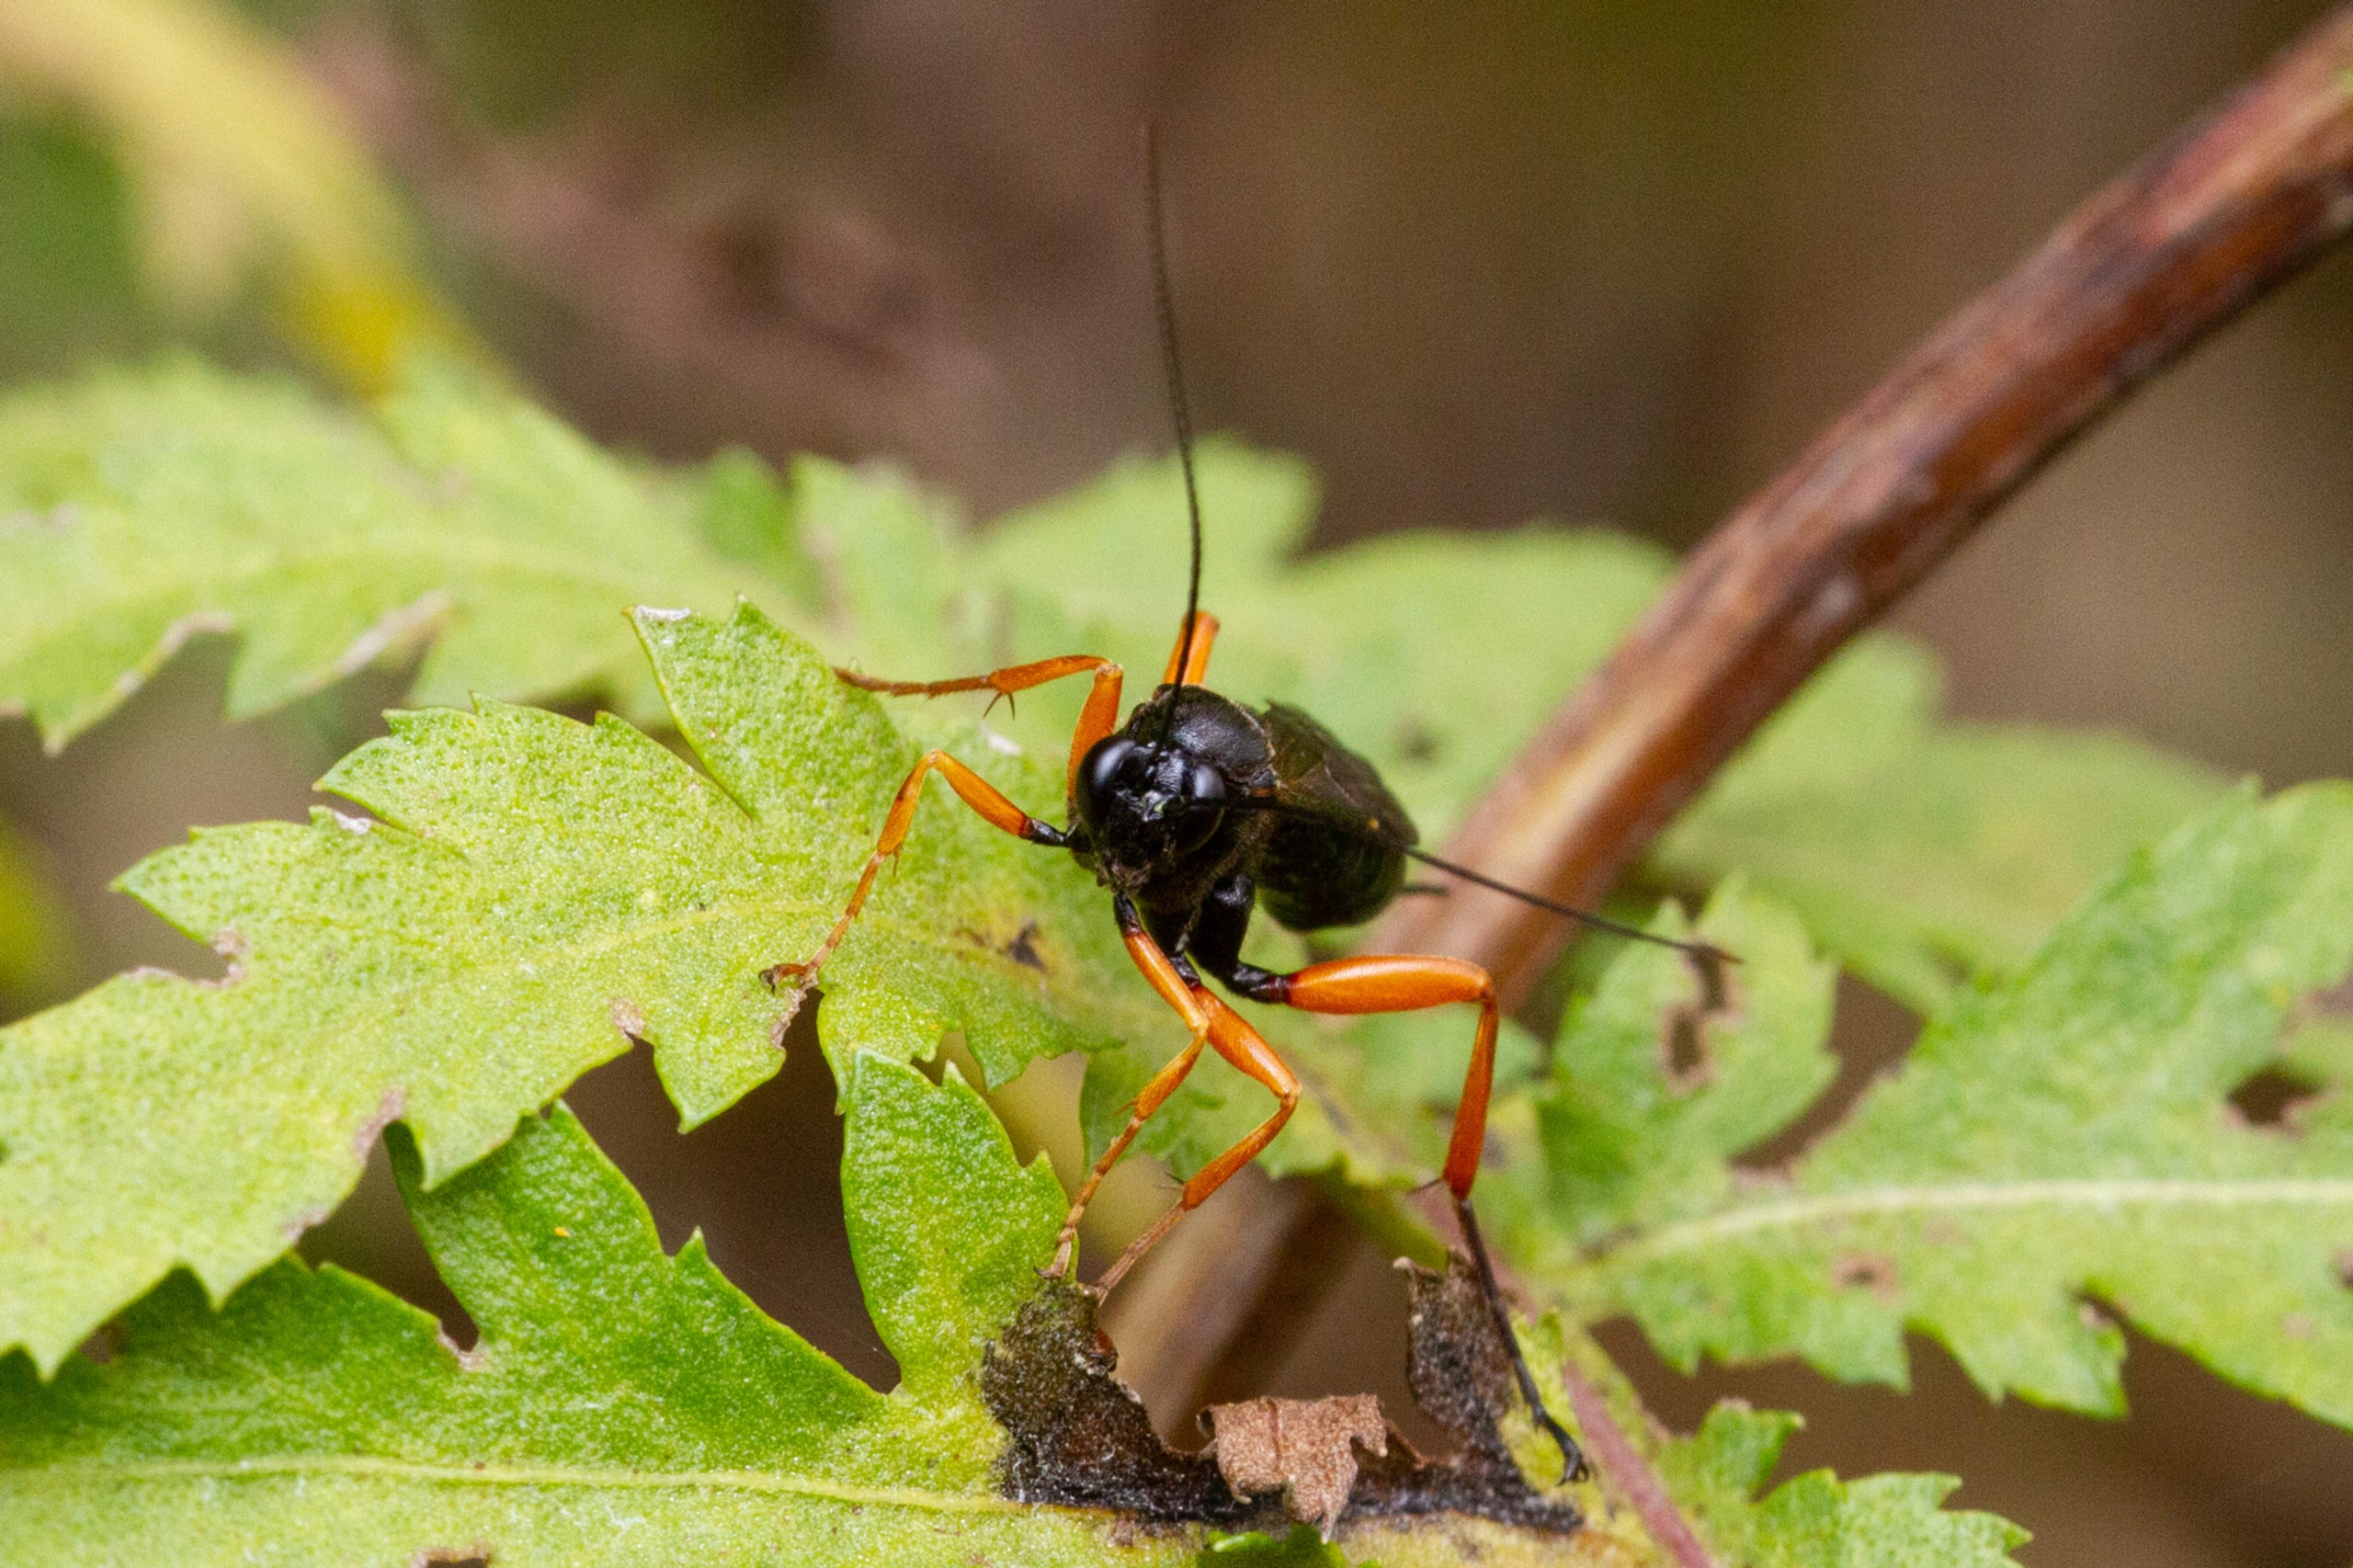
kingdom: Animalia
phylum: Arthropoda
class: Insecta
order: Hymenoptera
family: Ichneumonidae
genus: Pimpla
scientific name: Pimpla rufipes
